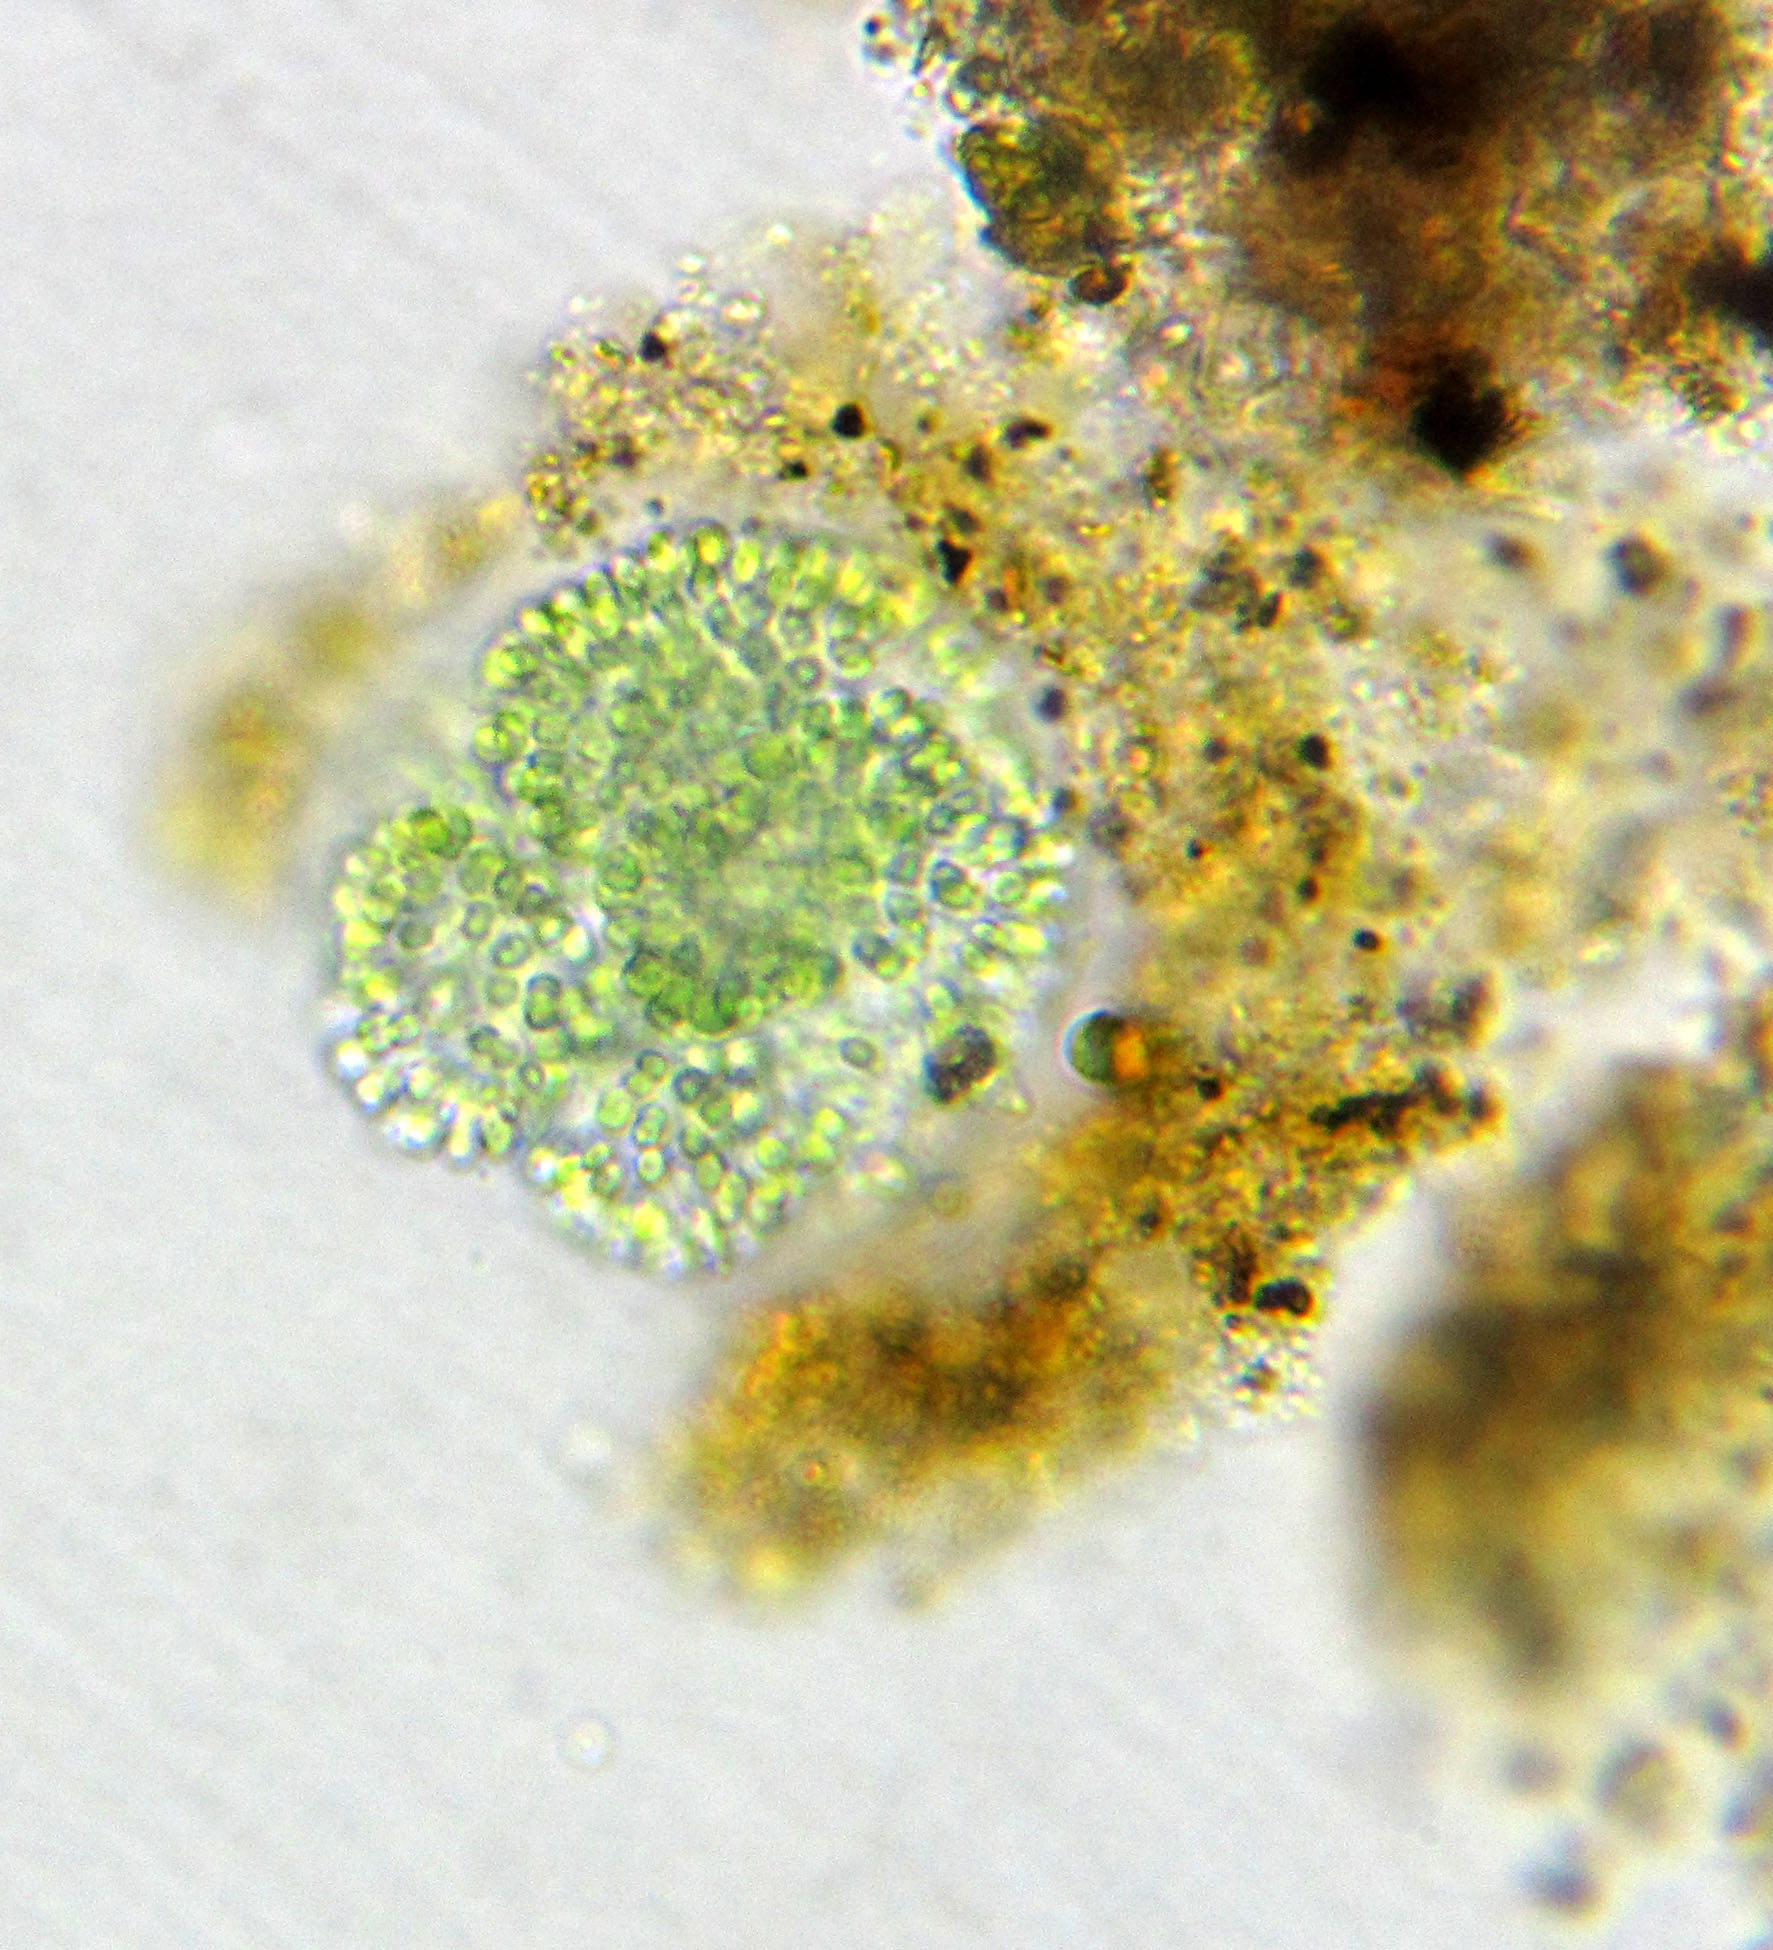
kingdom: Bacteria
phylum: Cyanobacteria
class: Cyanobacteriia
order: Synechococcales
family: Coelosphaeriaceae
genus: Woronichinia
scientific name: Woronichinia compacta
